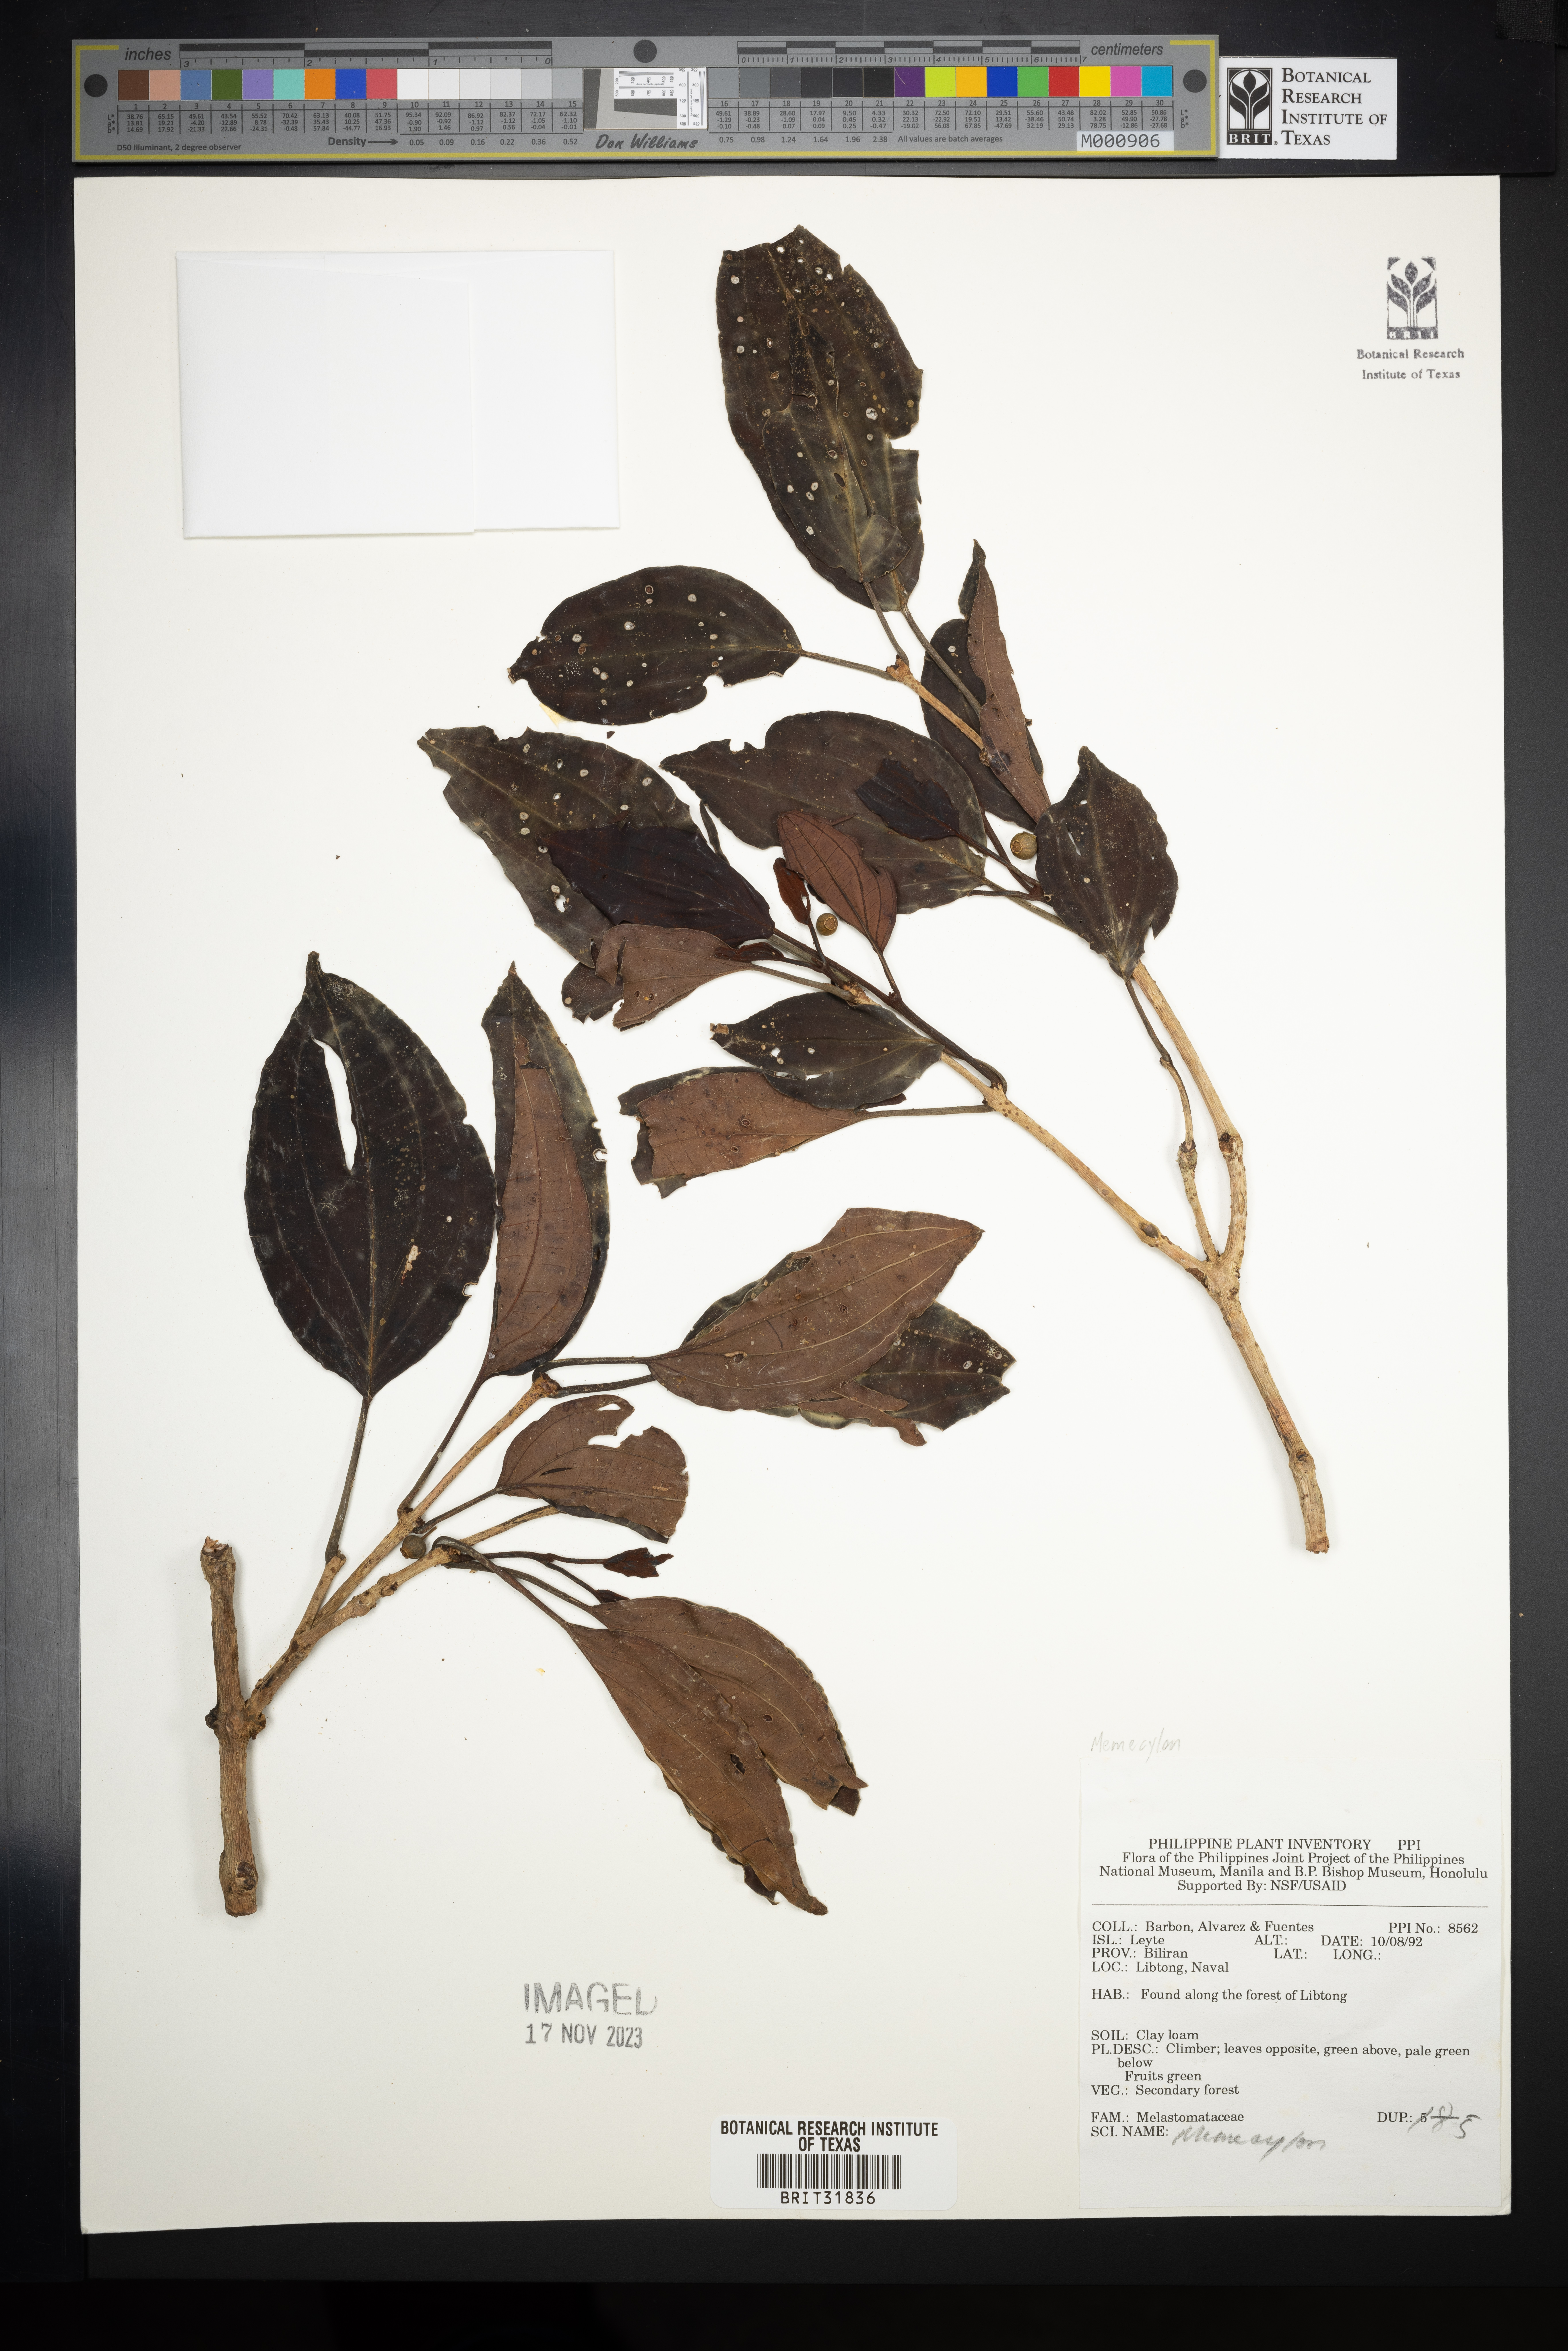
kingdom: Plantae
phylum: Tracheophyta
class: Magnoliopsida
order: Myrtales
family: Melastomataceae
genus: Memecylon
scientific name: Memecylon
